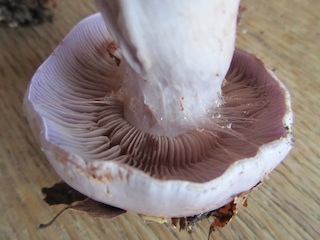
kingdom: Fungi
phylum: Basidiomycota
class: Agaricomycetes
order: Agaricales
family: Cortinariaceae
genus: Cortinarius
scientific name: Cortinarius largus
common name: violetrandet slørhat
